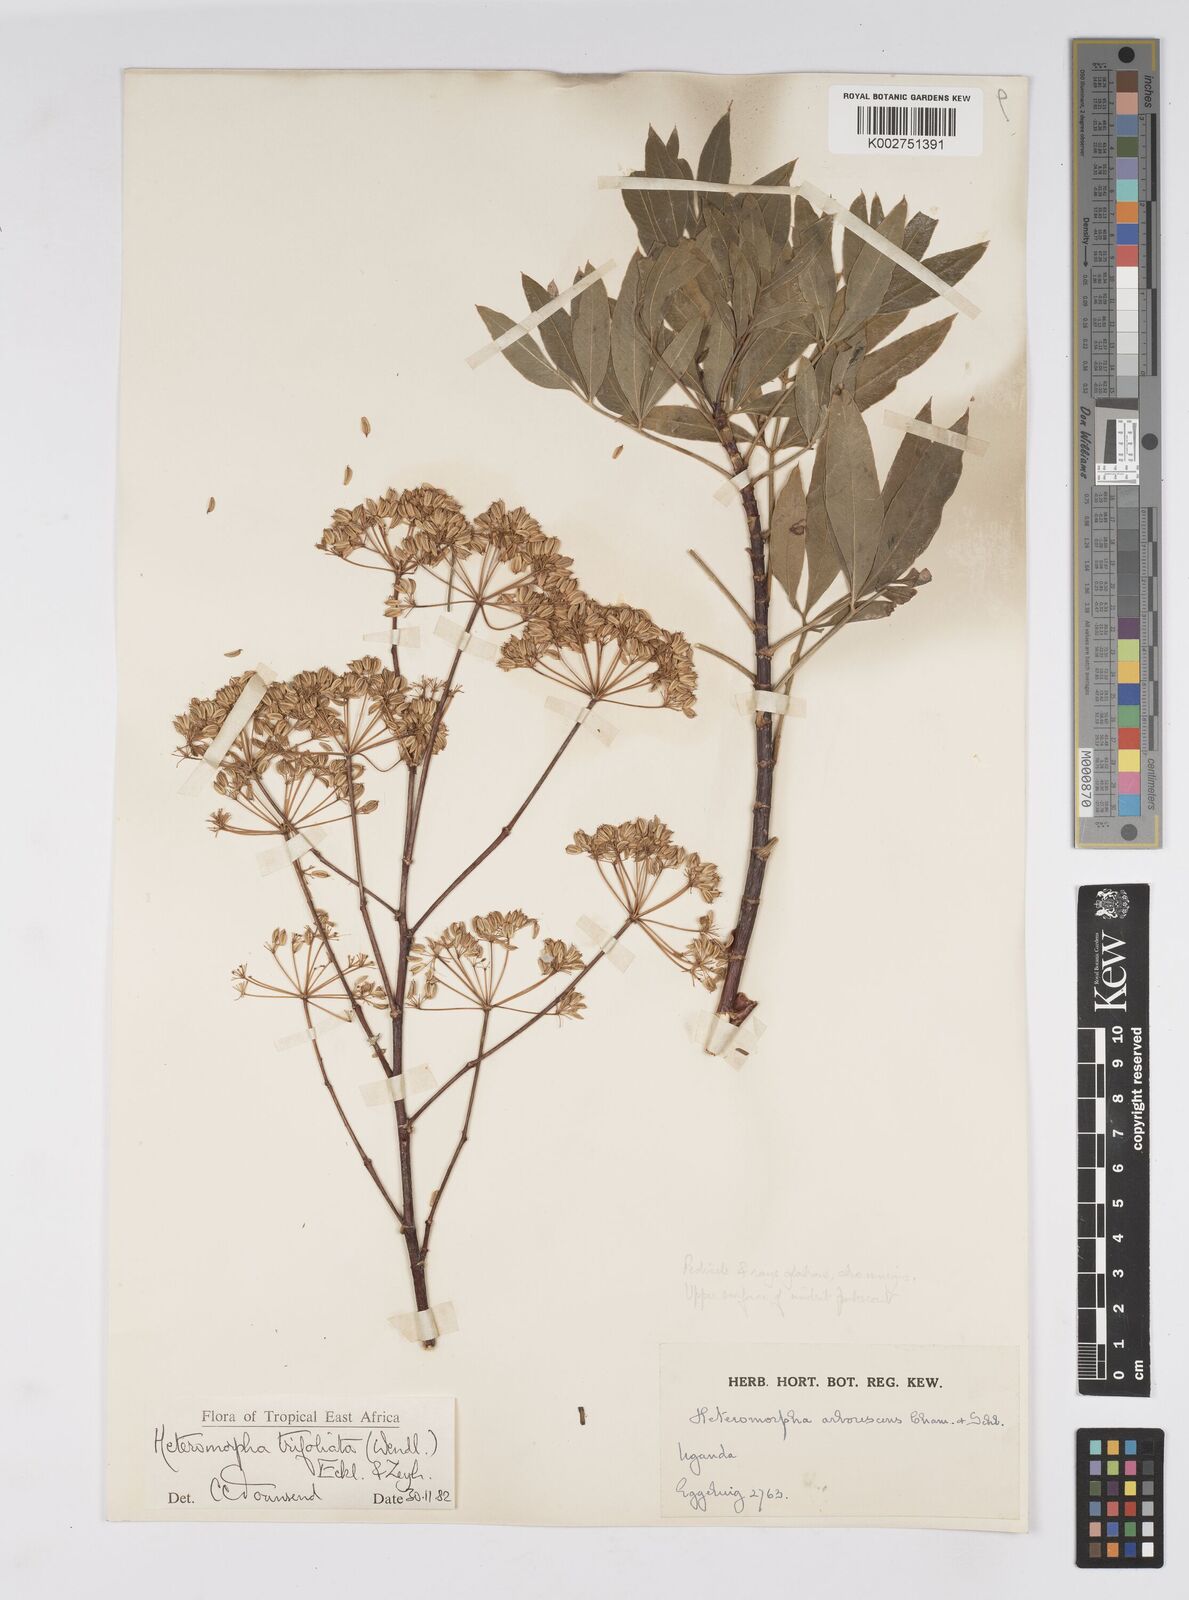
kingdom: Plantae
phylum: Tracheophyta
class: Magnoliopsida
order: Apiales
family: Apiaceae
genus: Heteromorpha
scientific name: Heteromorpha arborescens
